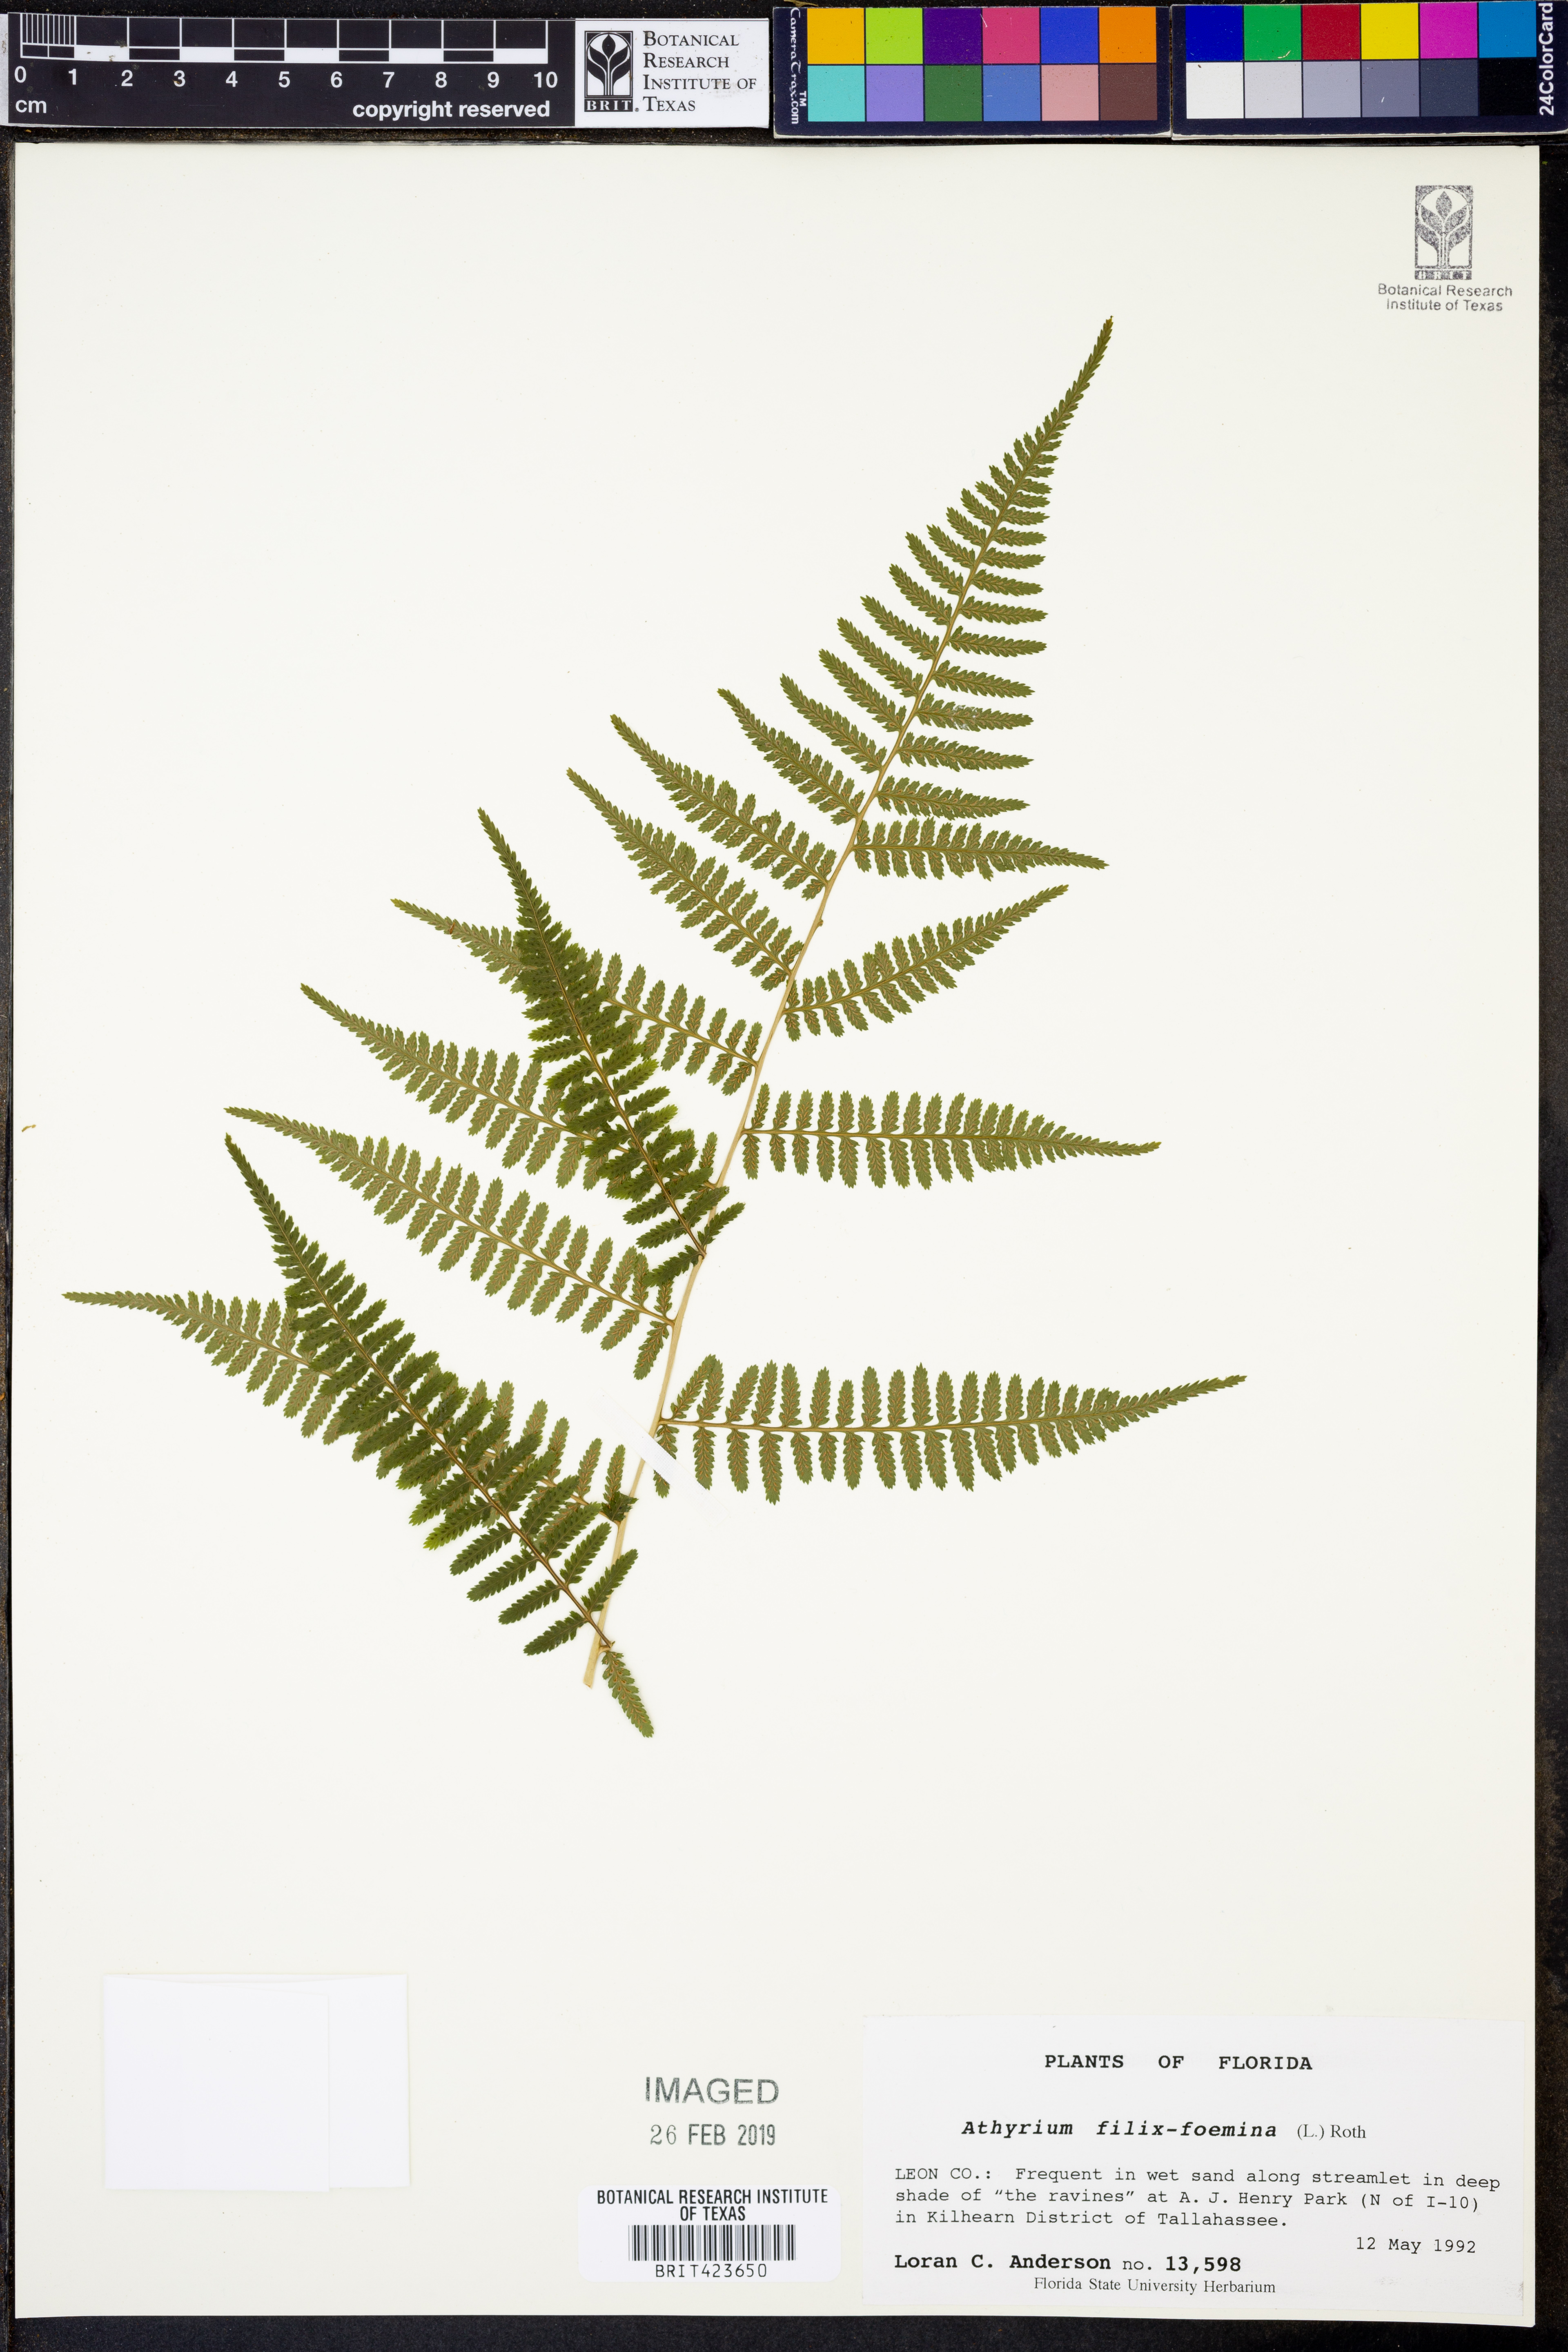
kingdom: Plantae
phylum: Tracheophyta
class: Polypodiopsida
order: Polypodiales
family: Athyriaceae
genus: Athyrium
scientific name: Athyrium filix-femina
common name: Lady fern
